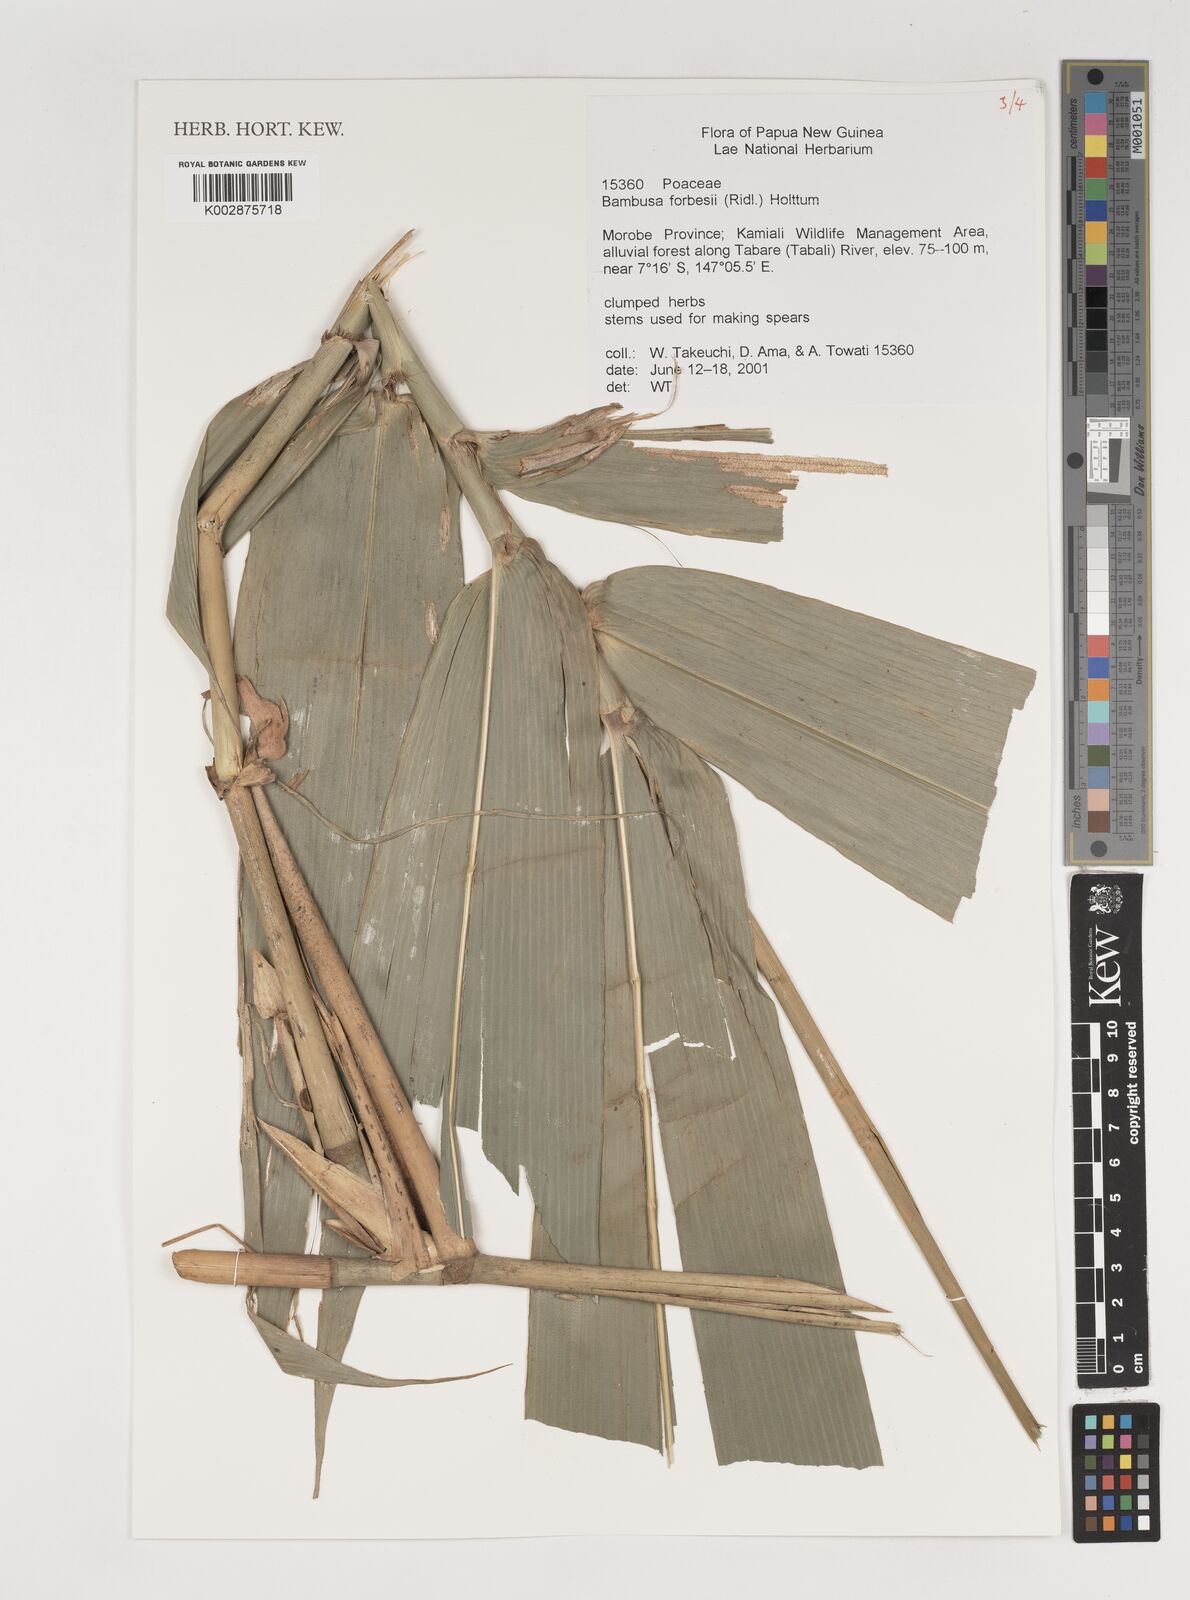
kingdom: Plantae
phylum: Tracheophyta
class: Liliopsida
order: Poales
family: Poaceae
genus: Neololeba
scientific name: Neololeba atra
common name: Cape bamboo
